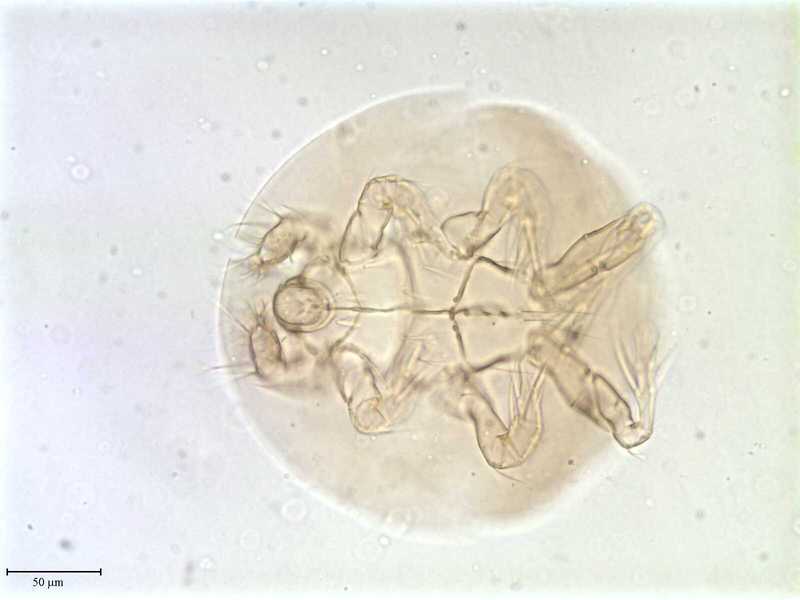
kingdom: Animalia
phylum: Arthropoda
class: Arachnida
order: Trombidiformes
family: Scutacaridae
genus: Scutacarus
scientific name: Scutacarus
